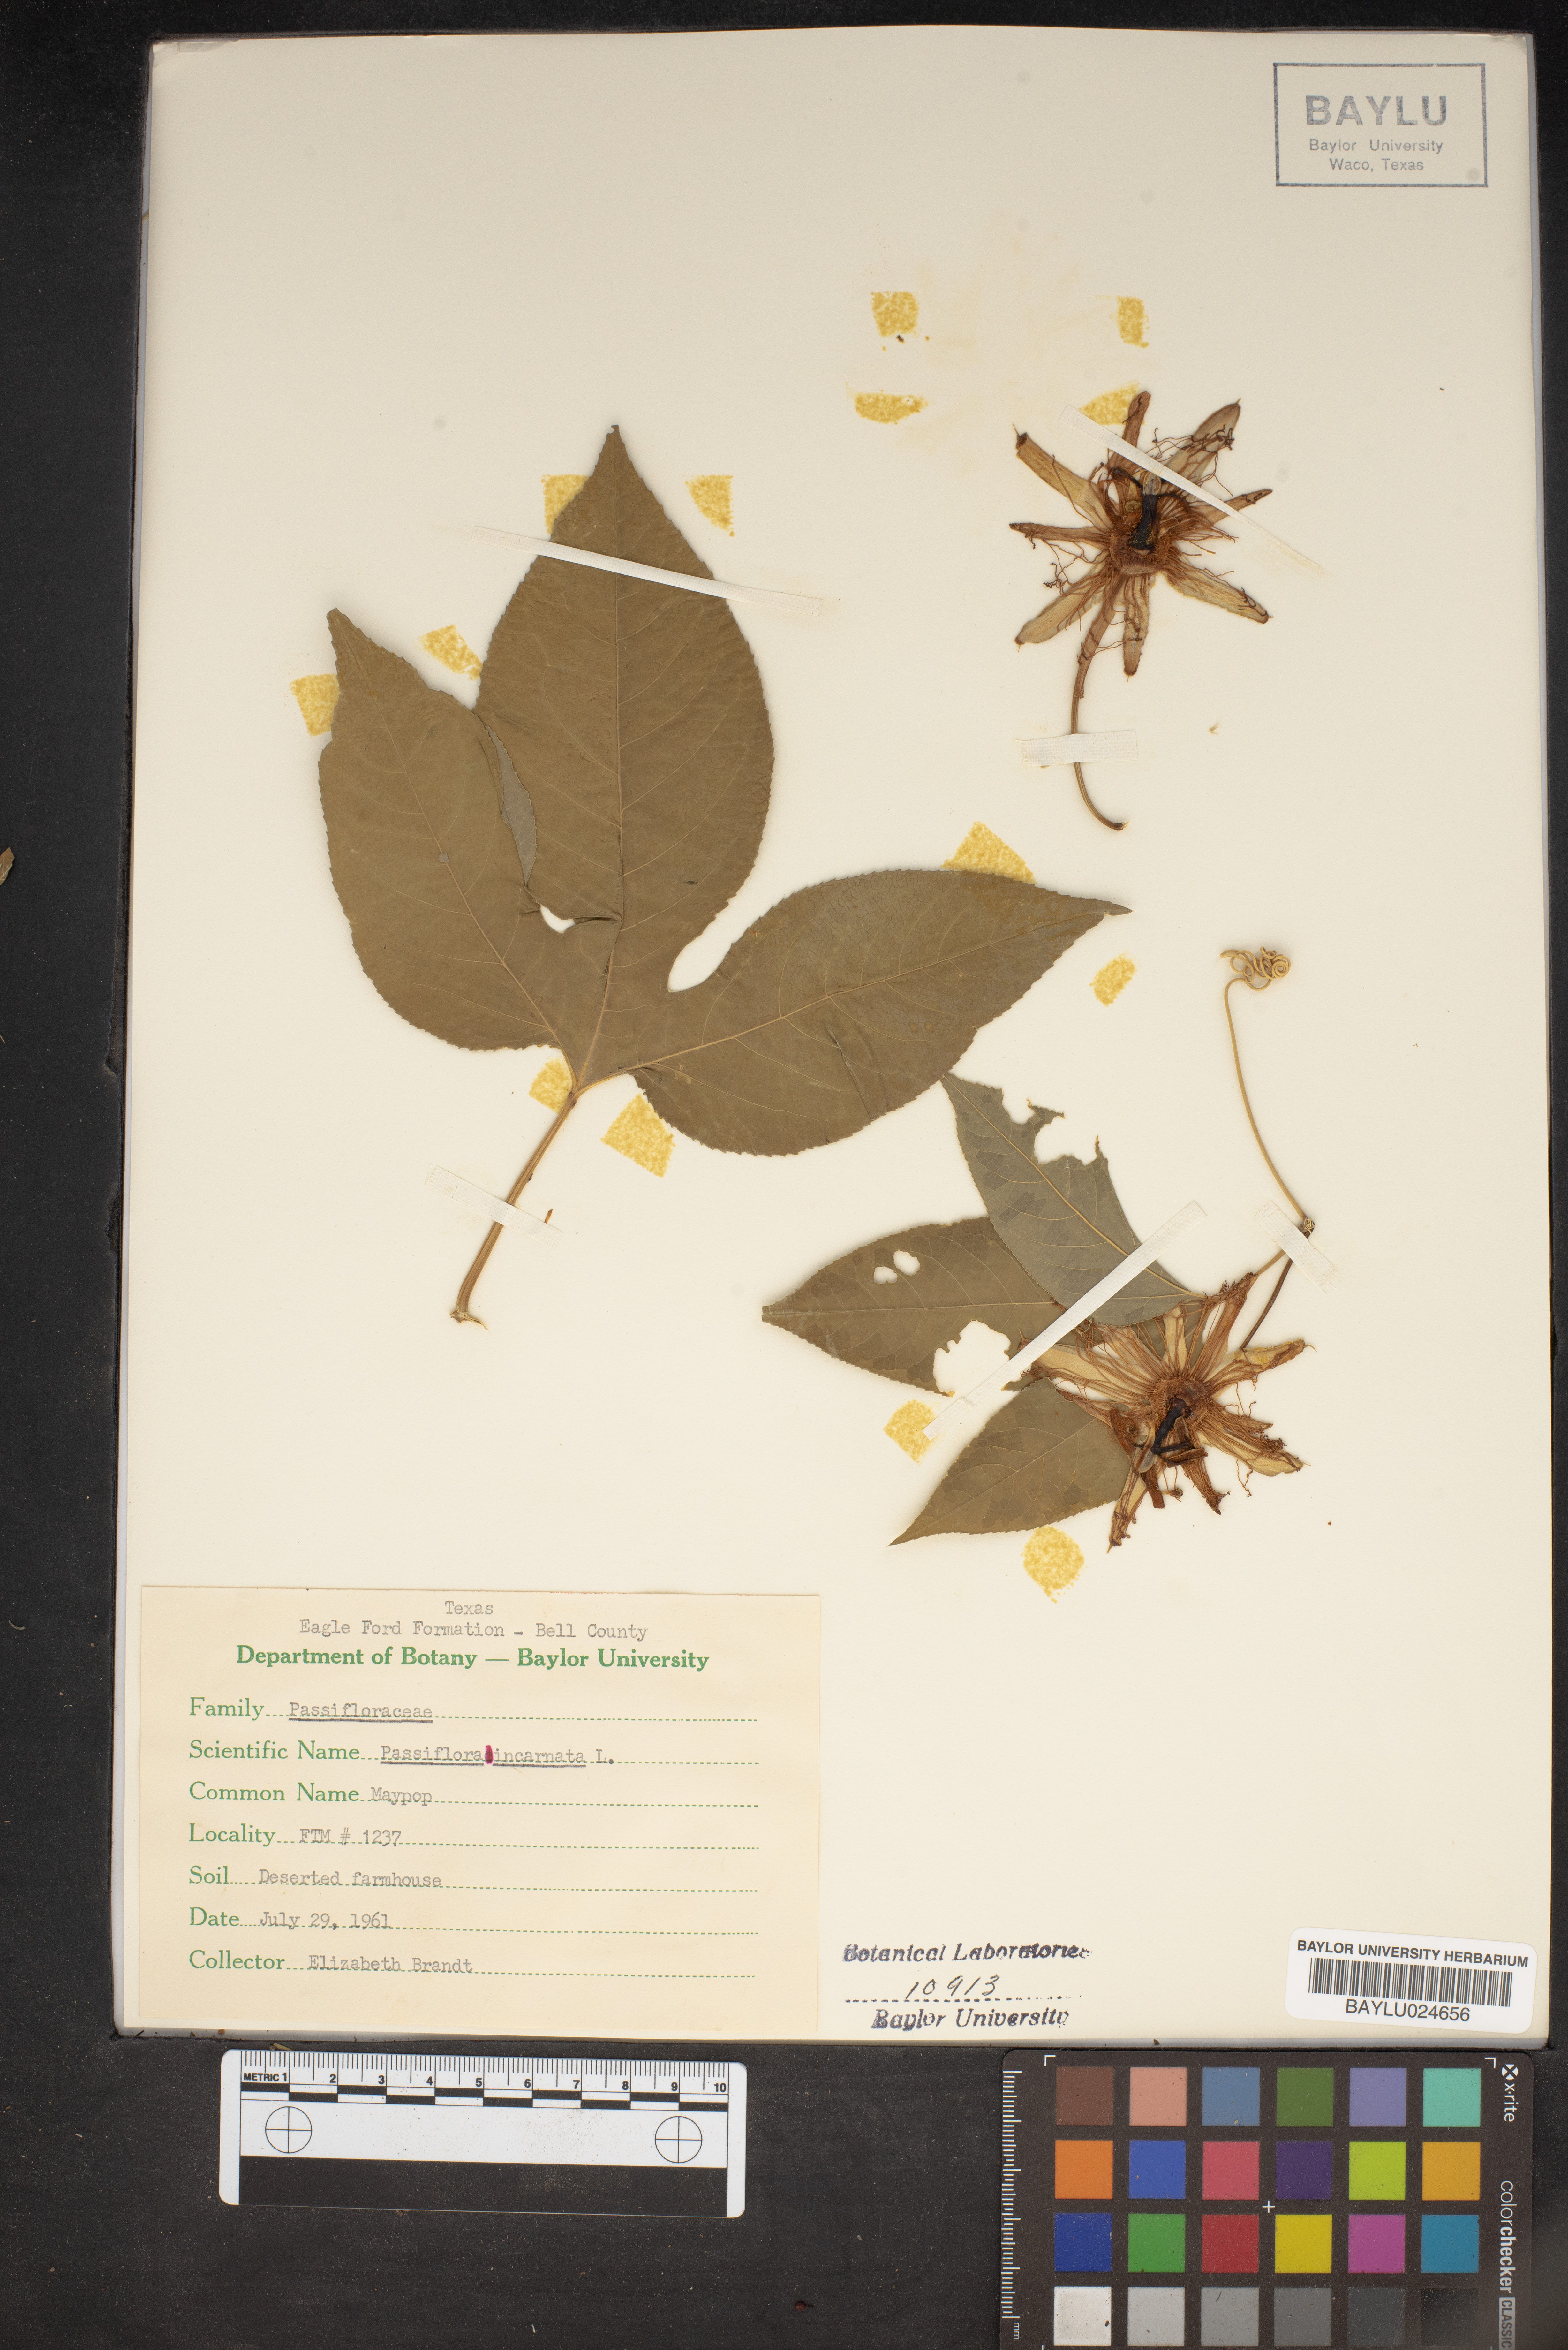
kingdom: Plantae
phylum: Tracheophyta
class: Magnoliopsida
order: Malpighiales
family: Passifloraceae
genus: Passiflora
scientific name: Passiflora incarnata
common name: Apricot-vine
